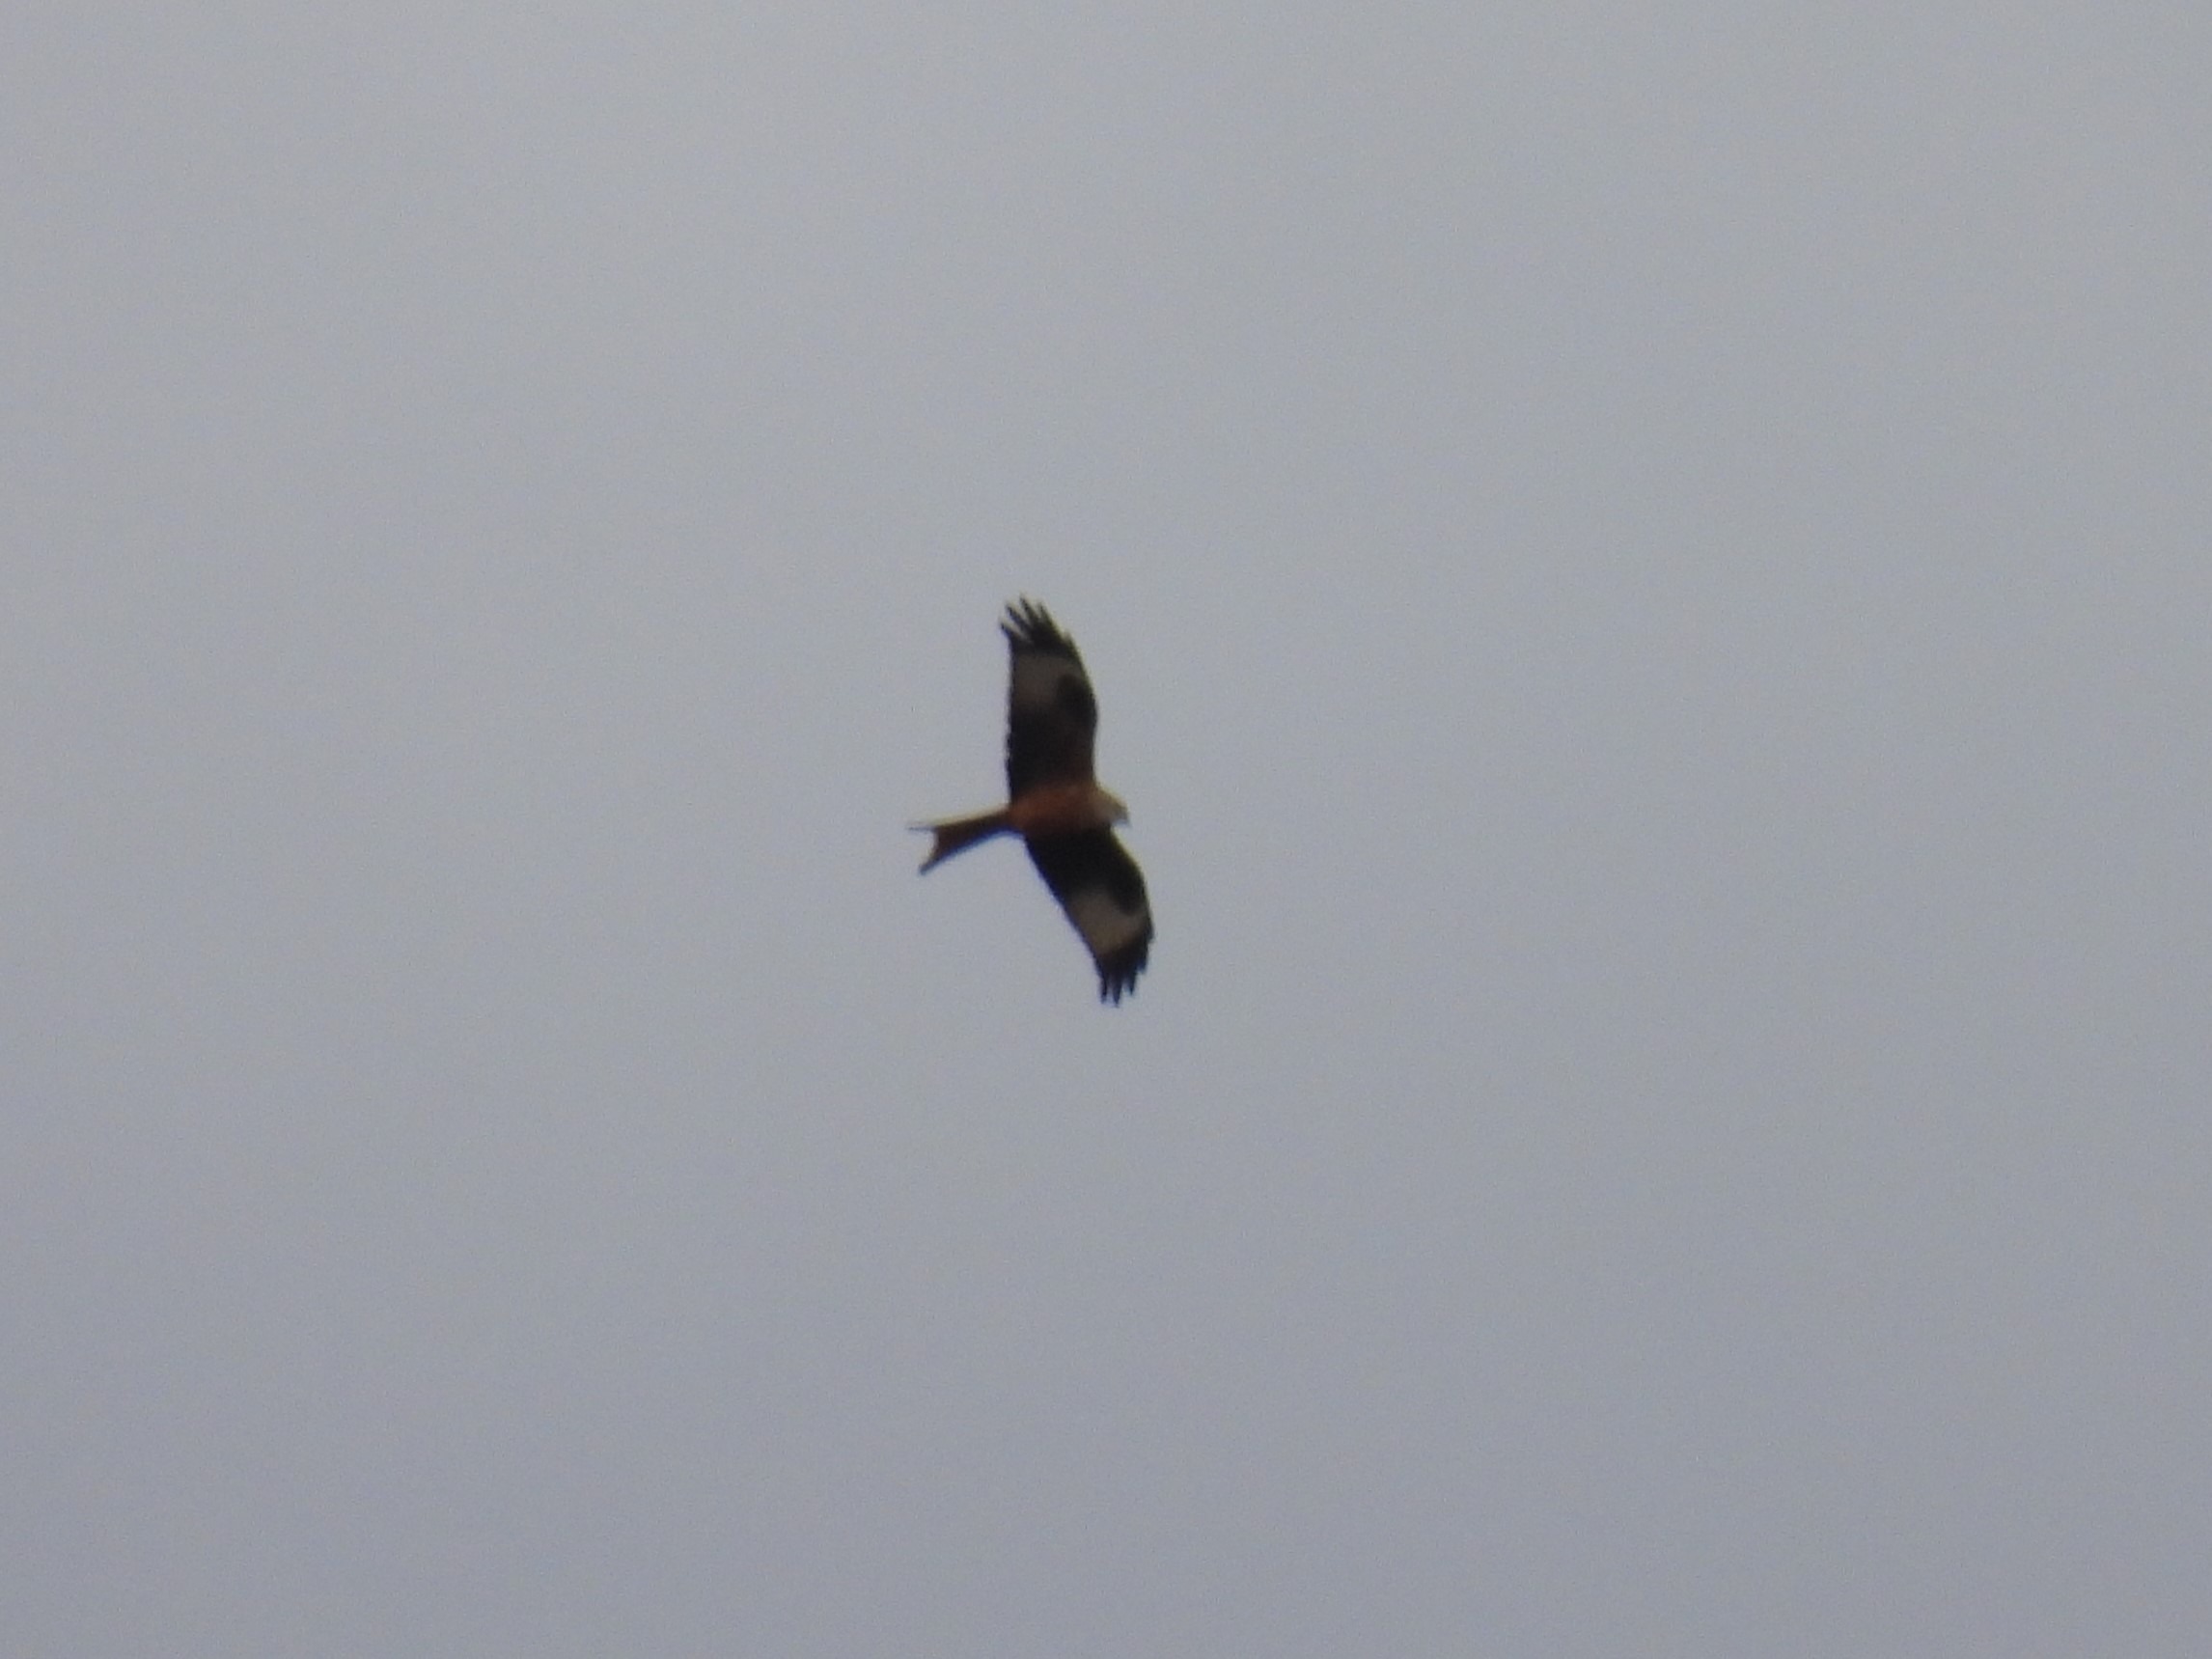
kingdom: Animalia
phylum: Chordata
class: Aves
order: Accipitriformes
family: Accipitridae
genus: Milvus
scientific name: Milvus milvus
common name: Rød glente
